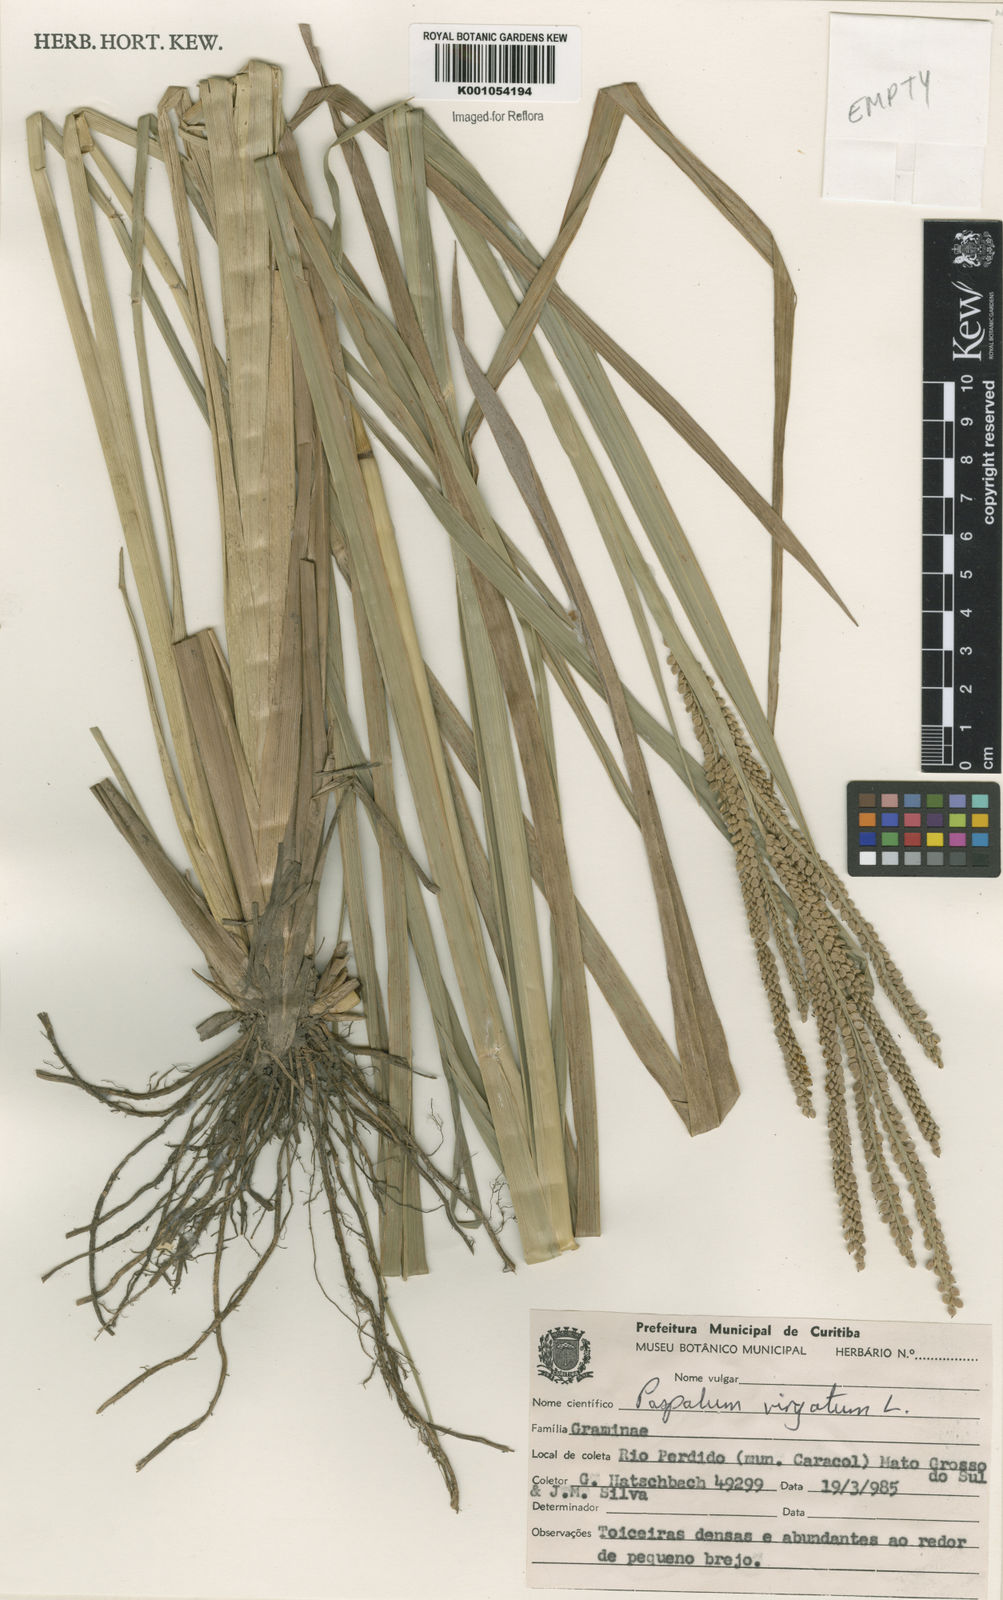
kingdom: Plantae
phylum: Tracheophyta
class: Liliopsida
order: Poales
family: Poaceae
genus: Paspalum
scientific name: Paspalum virgatum
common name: Talquezal
